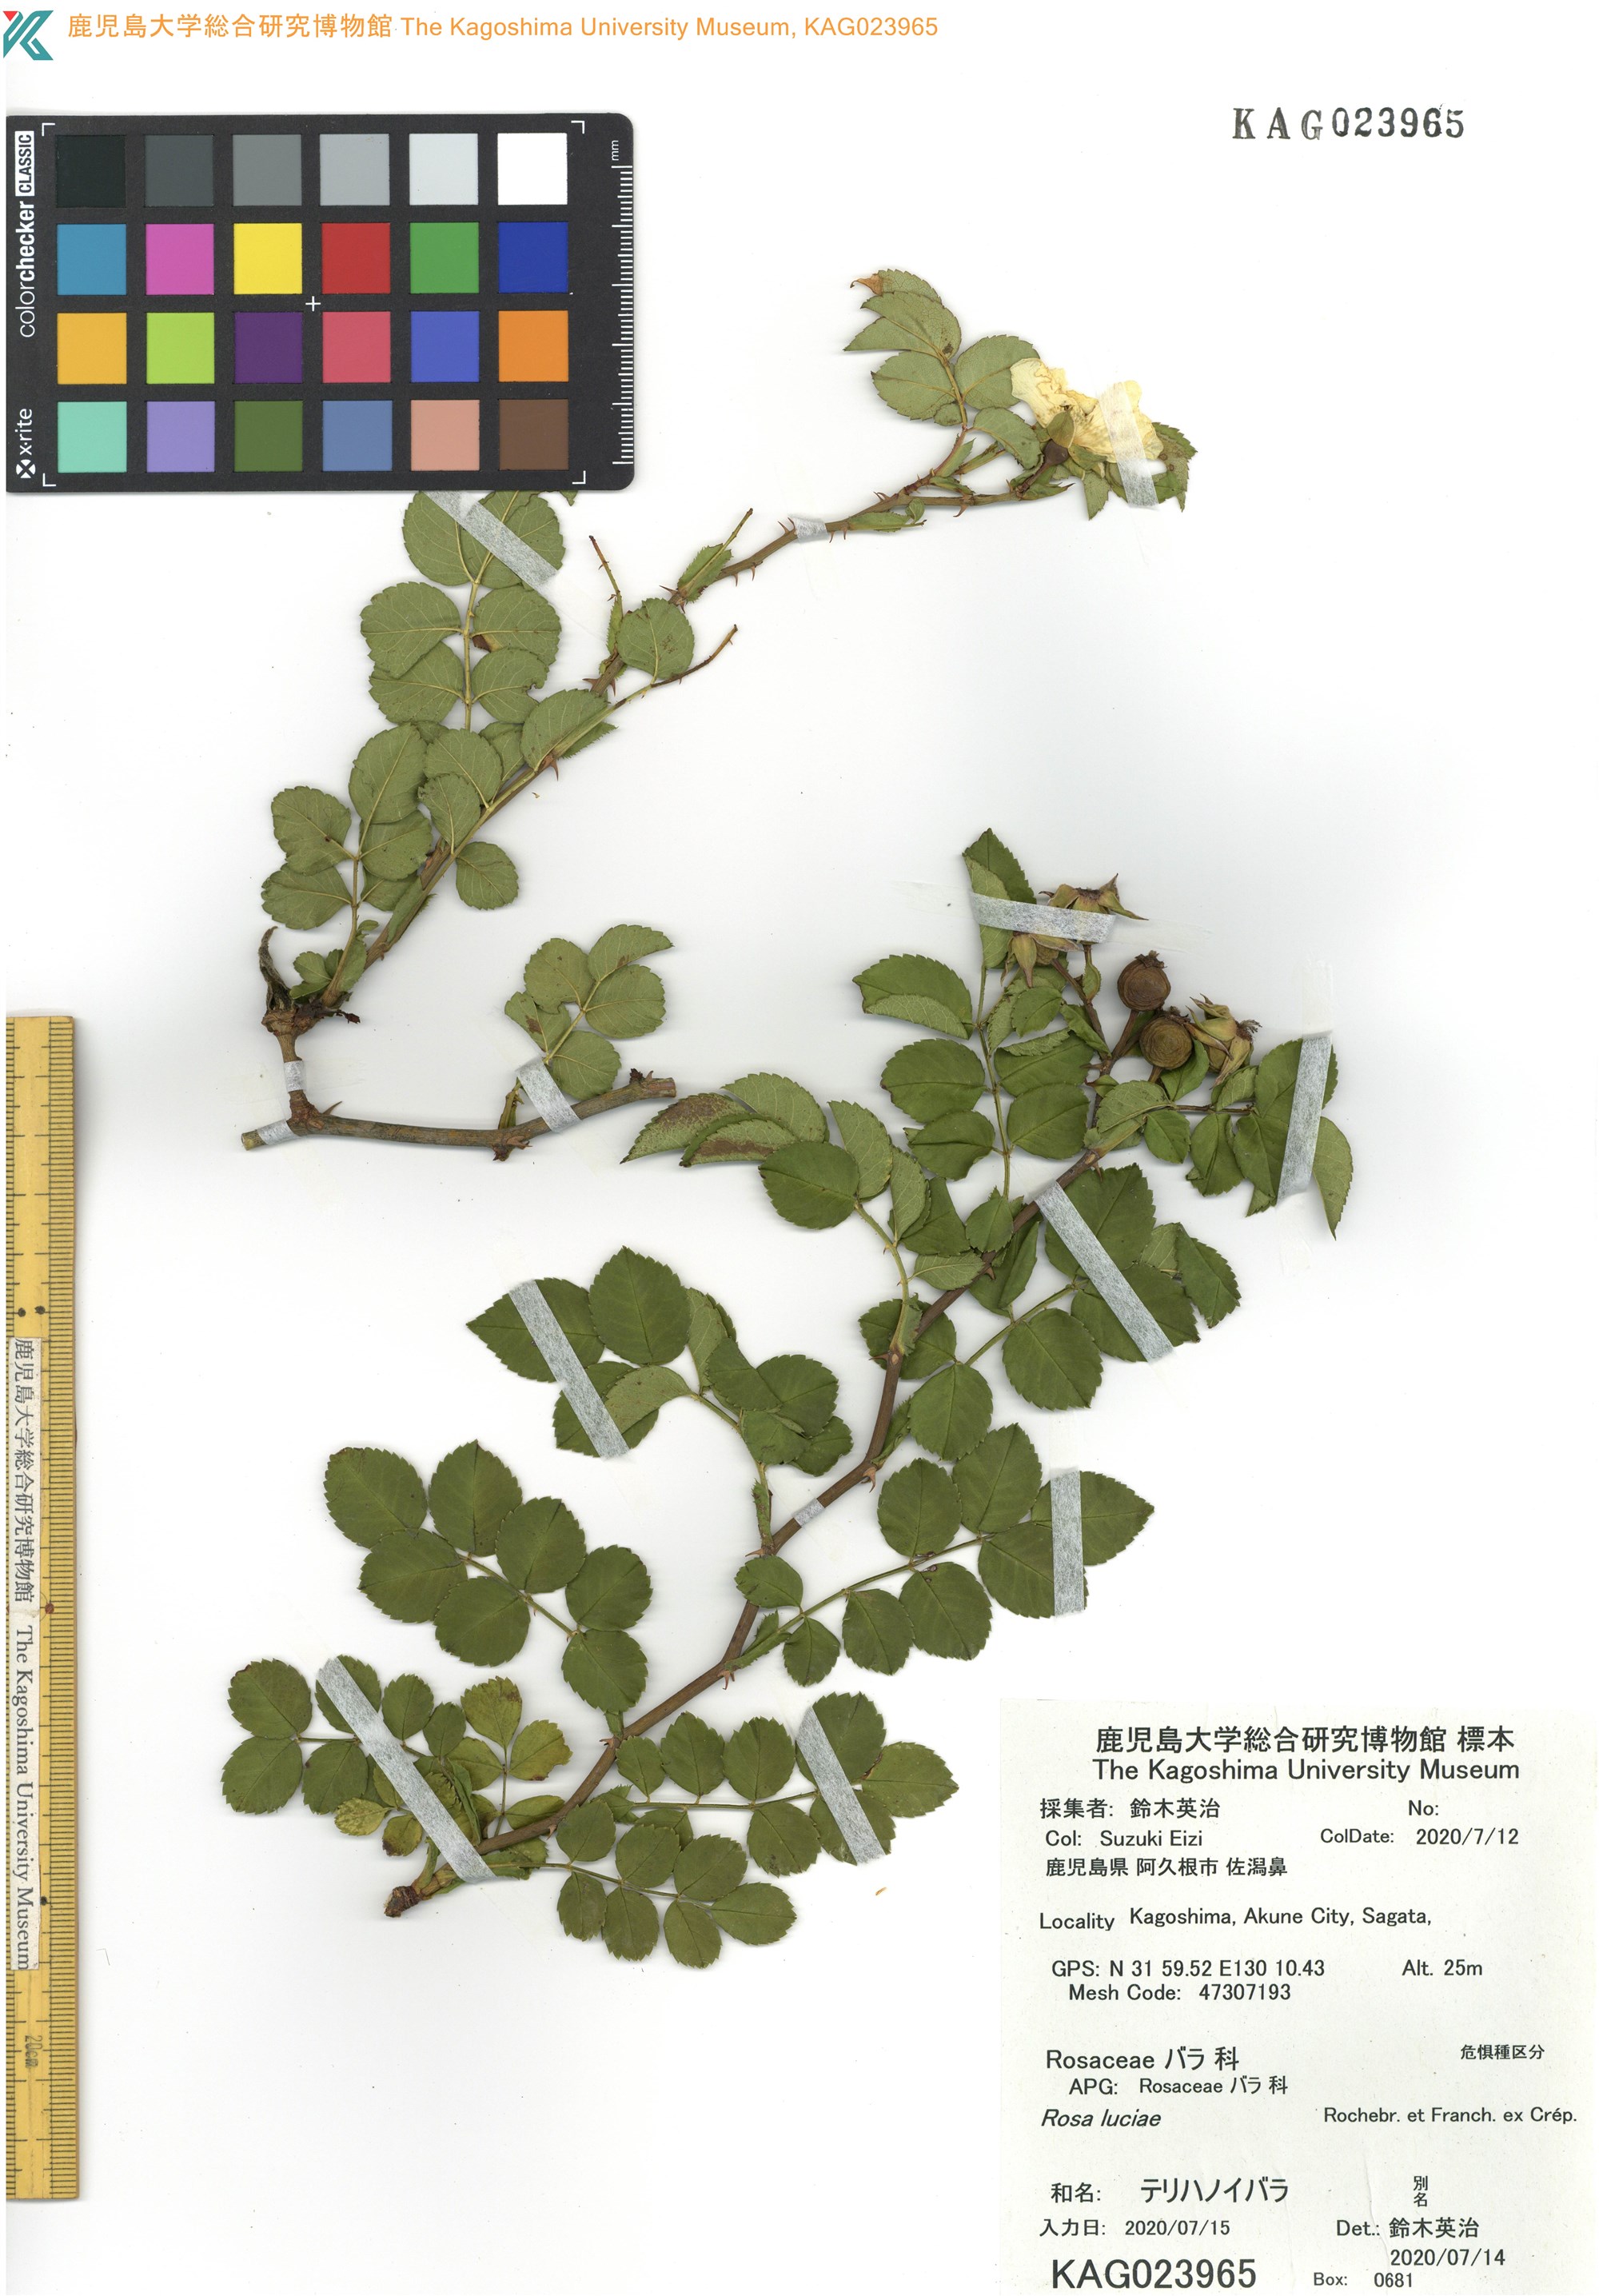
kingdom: Plantae
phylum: Tracheophyta
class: Magnoliopsida
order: Rosales
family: Rosaceae
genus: Rosa
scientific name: Rosa luciae
